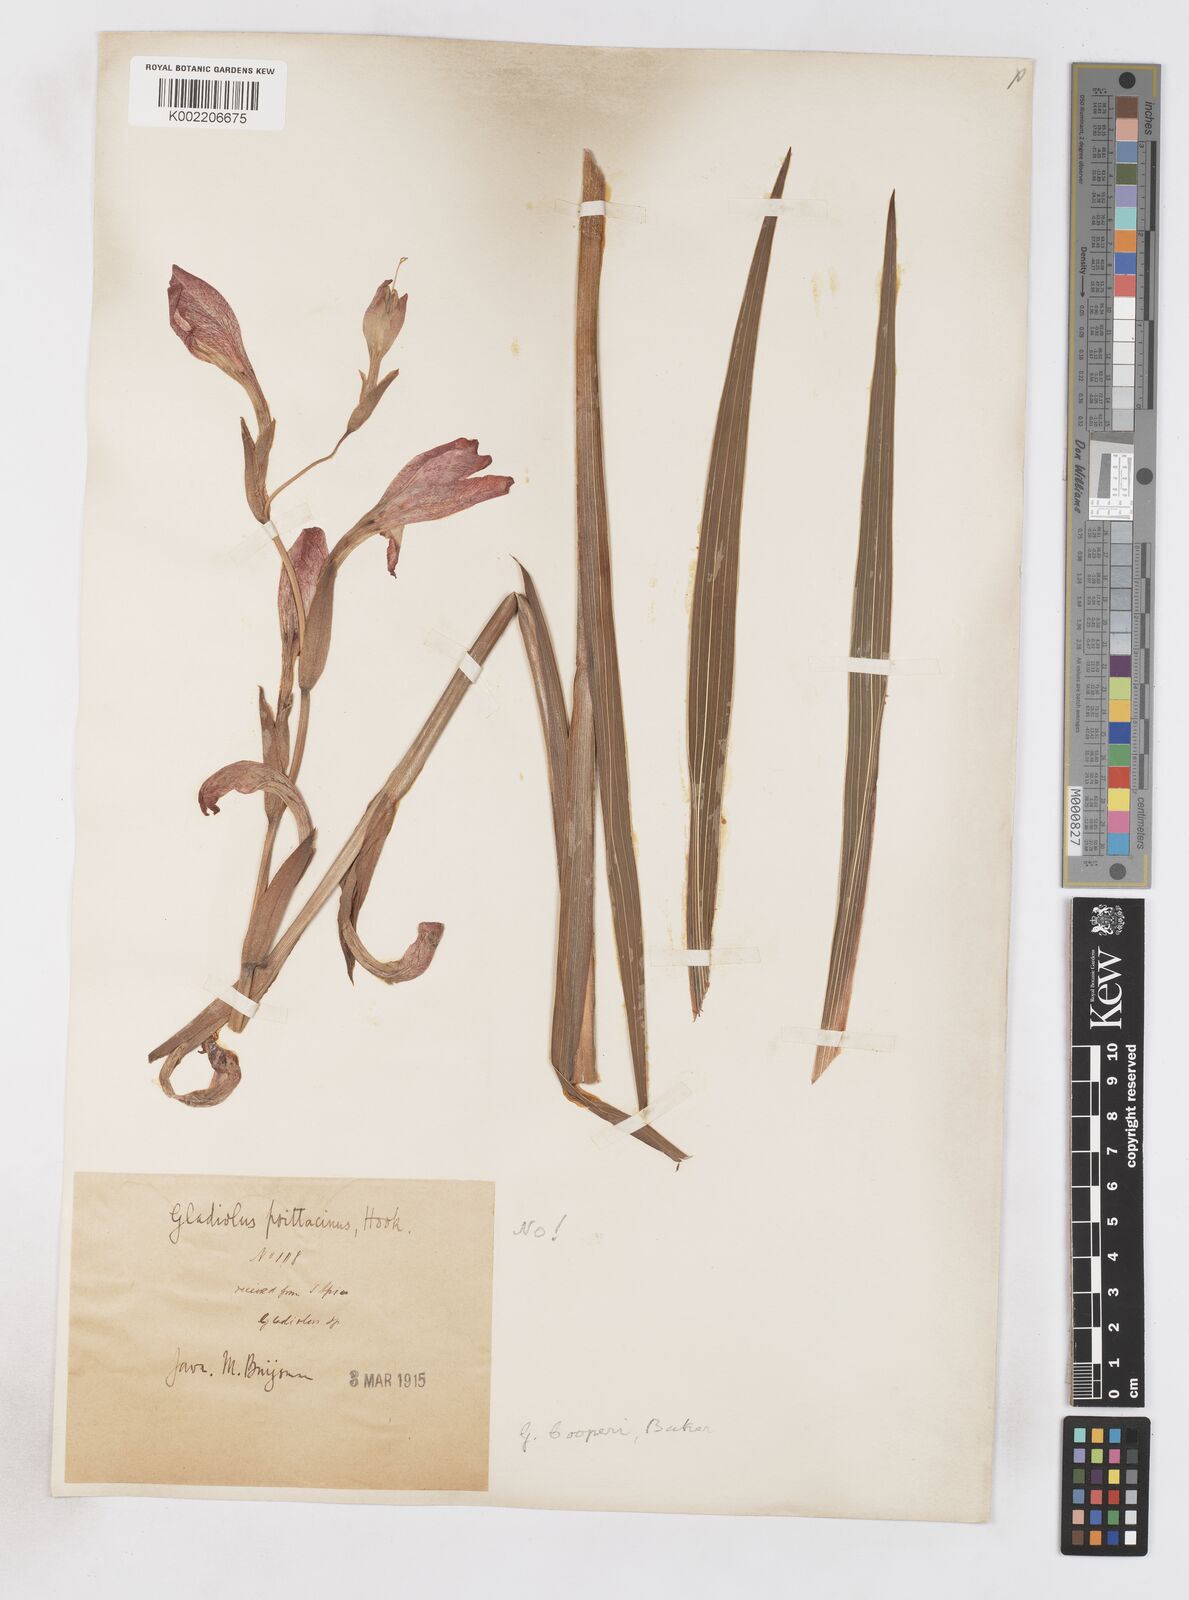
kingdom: Plantae
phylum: Tracheophyta
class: Liliopsida
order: Asparagales
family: Iridaceae
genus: Gladiolus
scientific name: Gladiolus dalenii
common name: Cornflag
